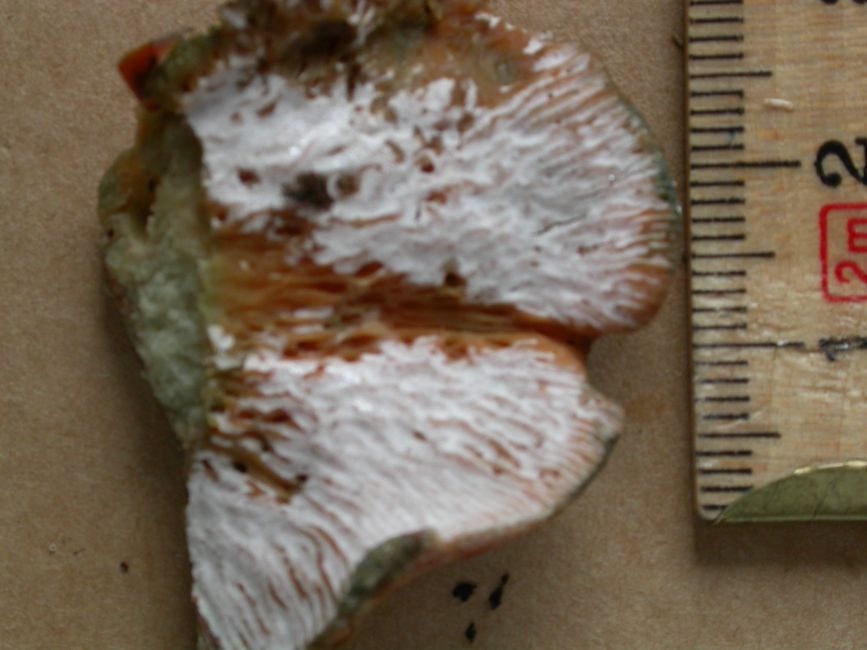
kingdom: Fungi
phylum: Ascomycota
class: Sordariomycetes
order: Hypocreales
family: Hypocreaceae
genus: Hypomyces
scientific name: Hypomyces lateritius
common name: mælkehat-snylteskorpe
